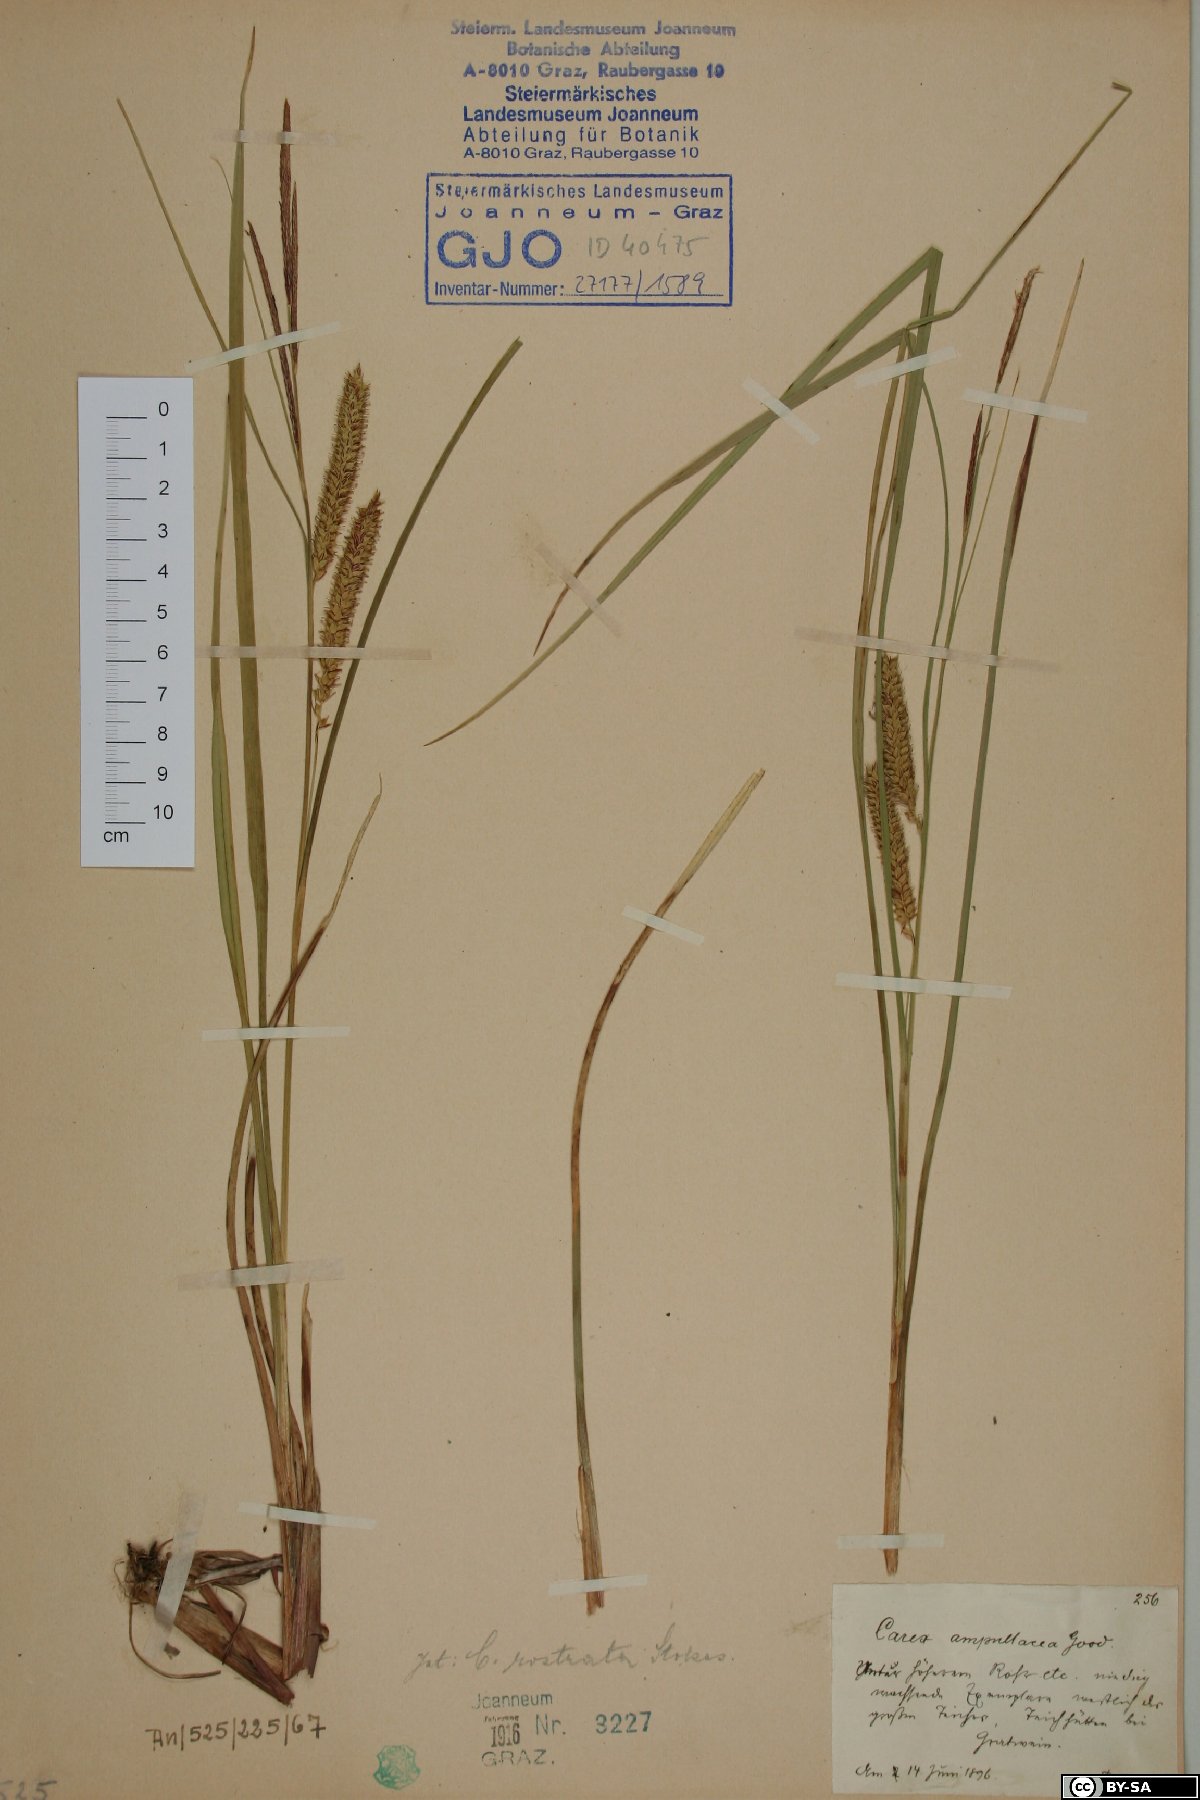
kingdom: Plantae
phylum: Tracheophyta
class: Liliopsida
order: Poales
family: Cyperaceae
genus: Carex
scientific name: Carex rostrata
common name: Bottle sedge
